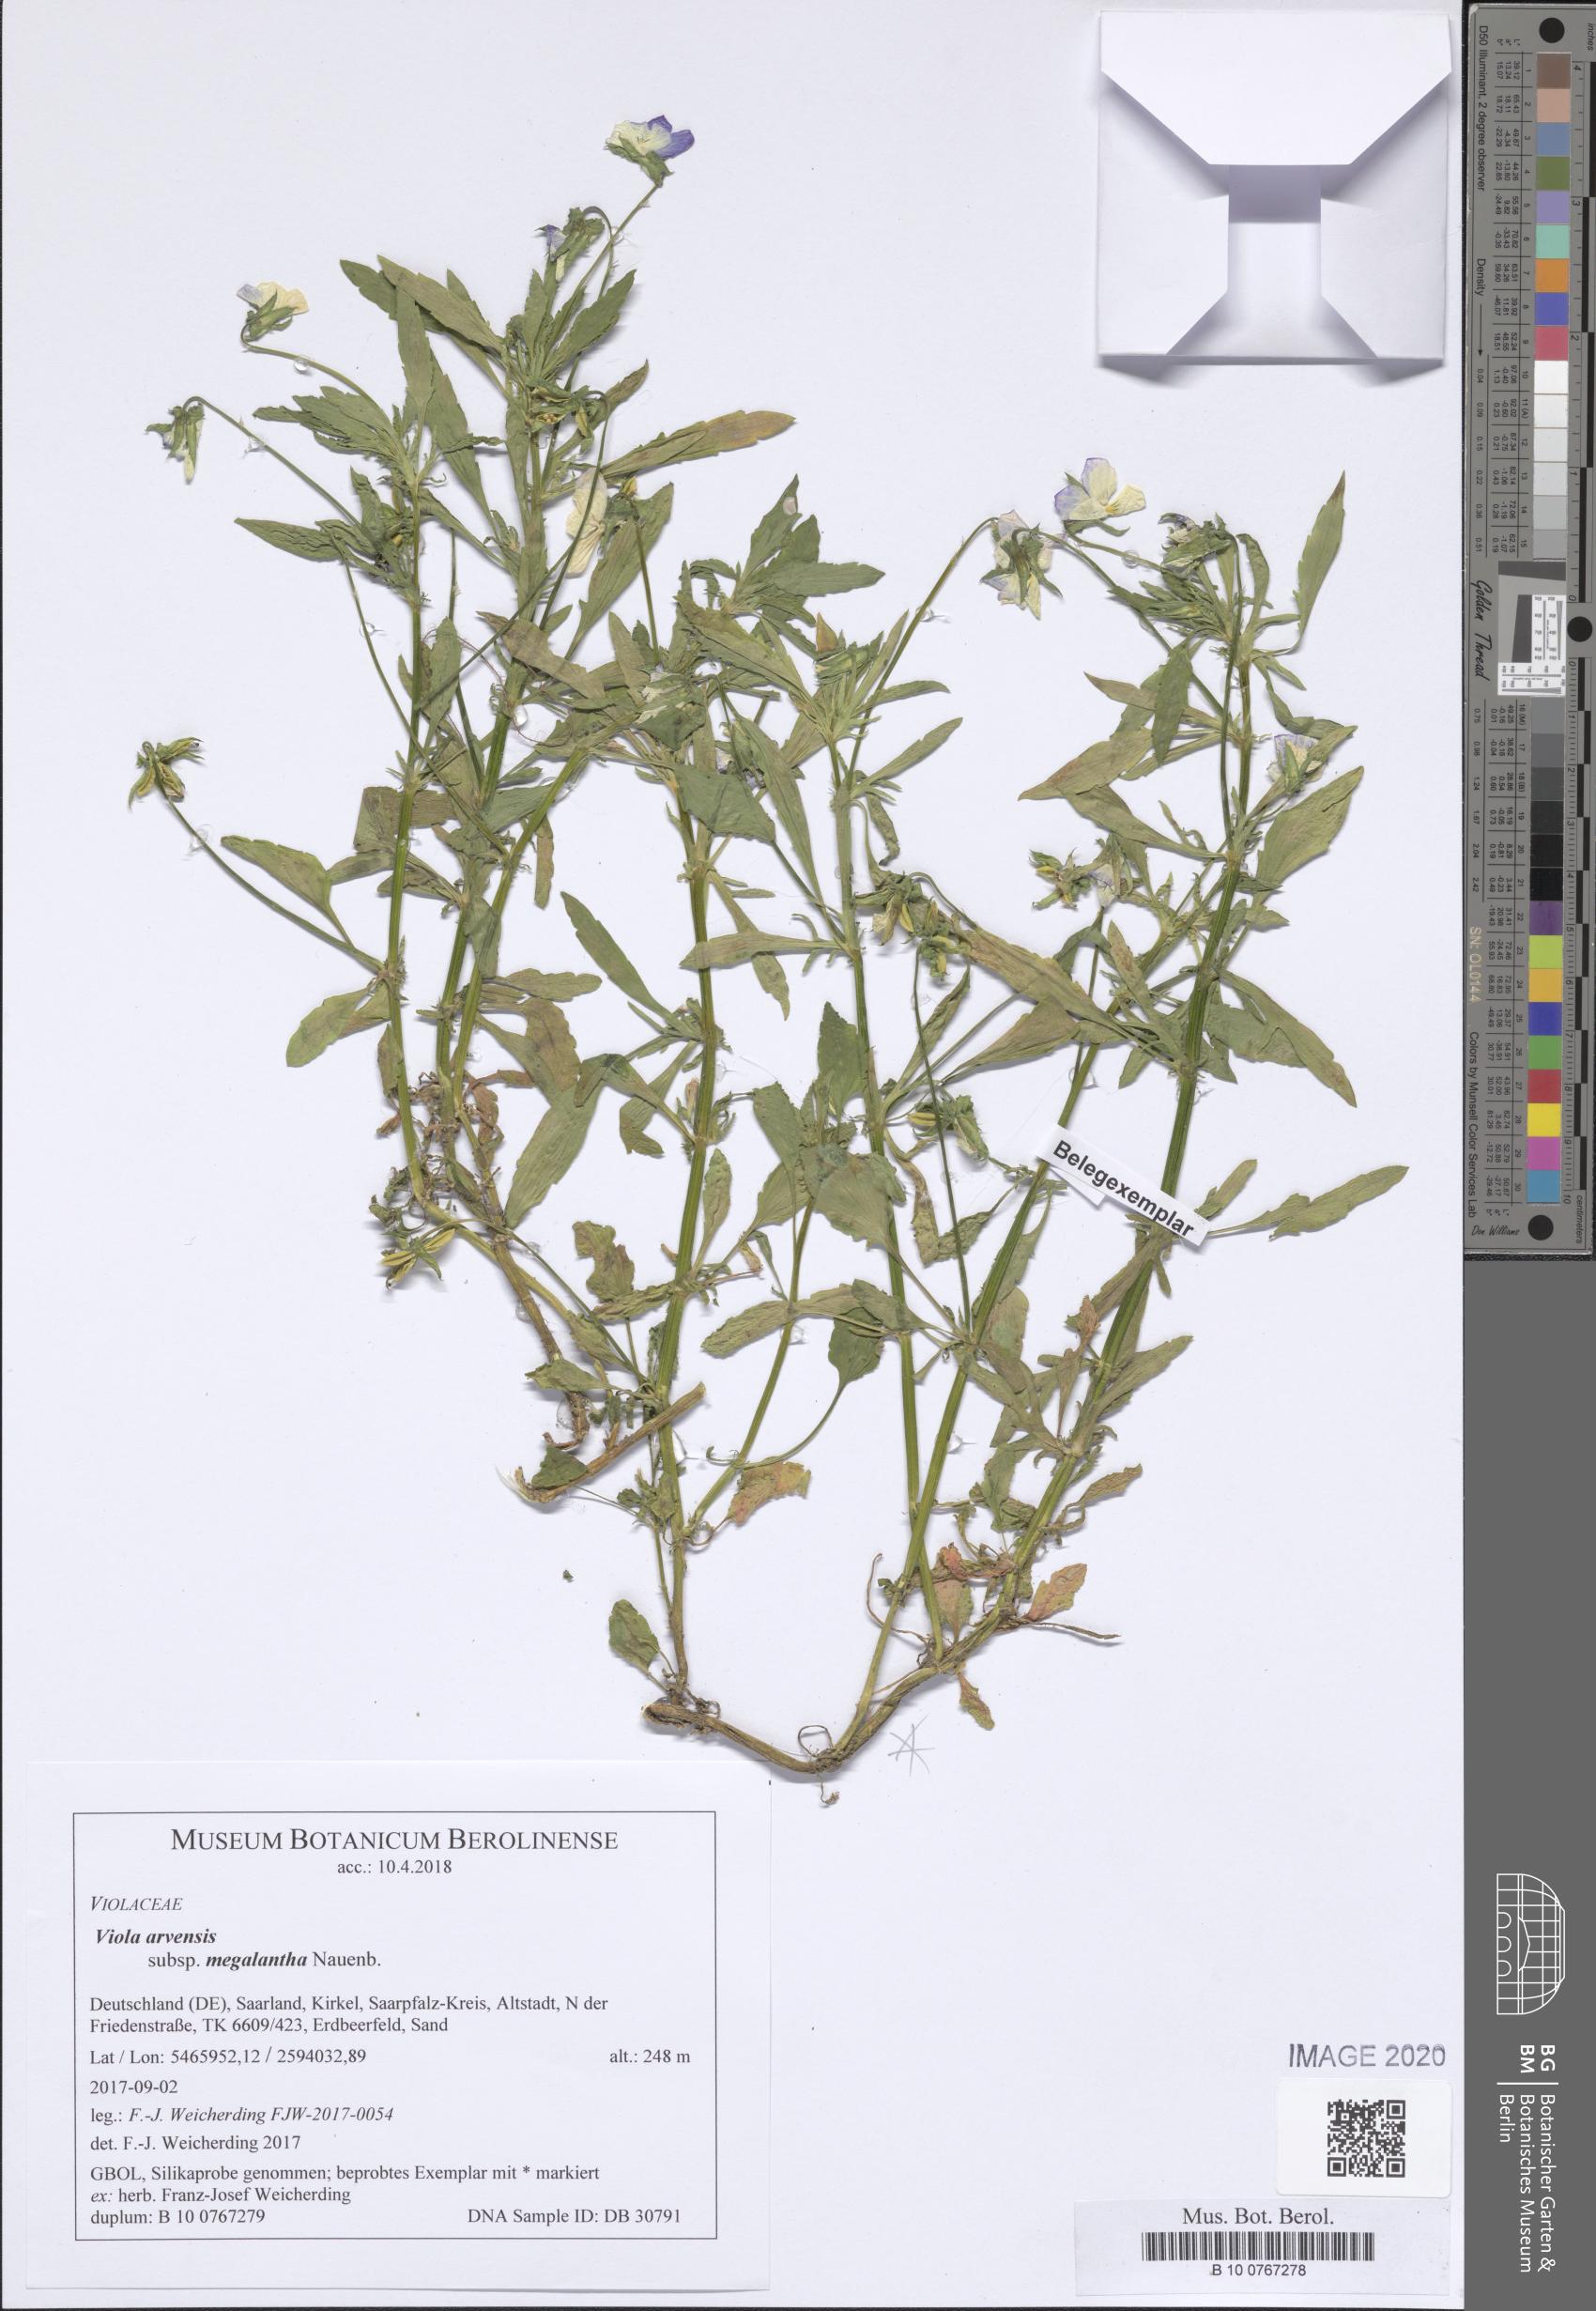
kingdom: Plantae
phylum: Tracheophyta
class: Magnoliopsida
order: Malpighiales
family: Violaceae
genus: Viola
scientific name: Viola arvensis
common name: Field pansy
